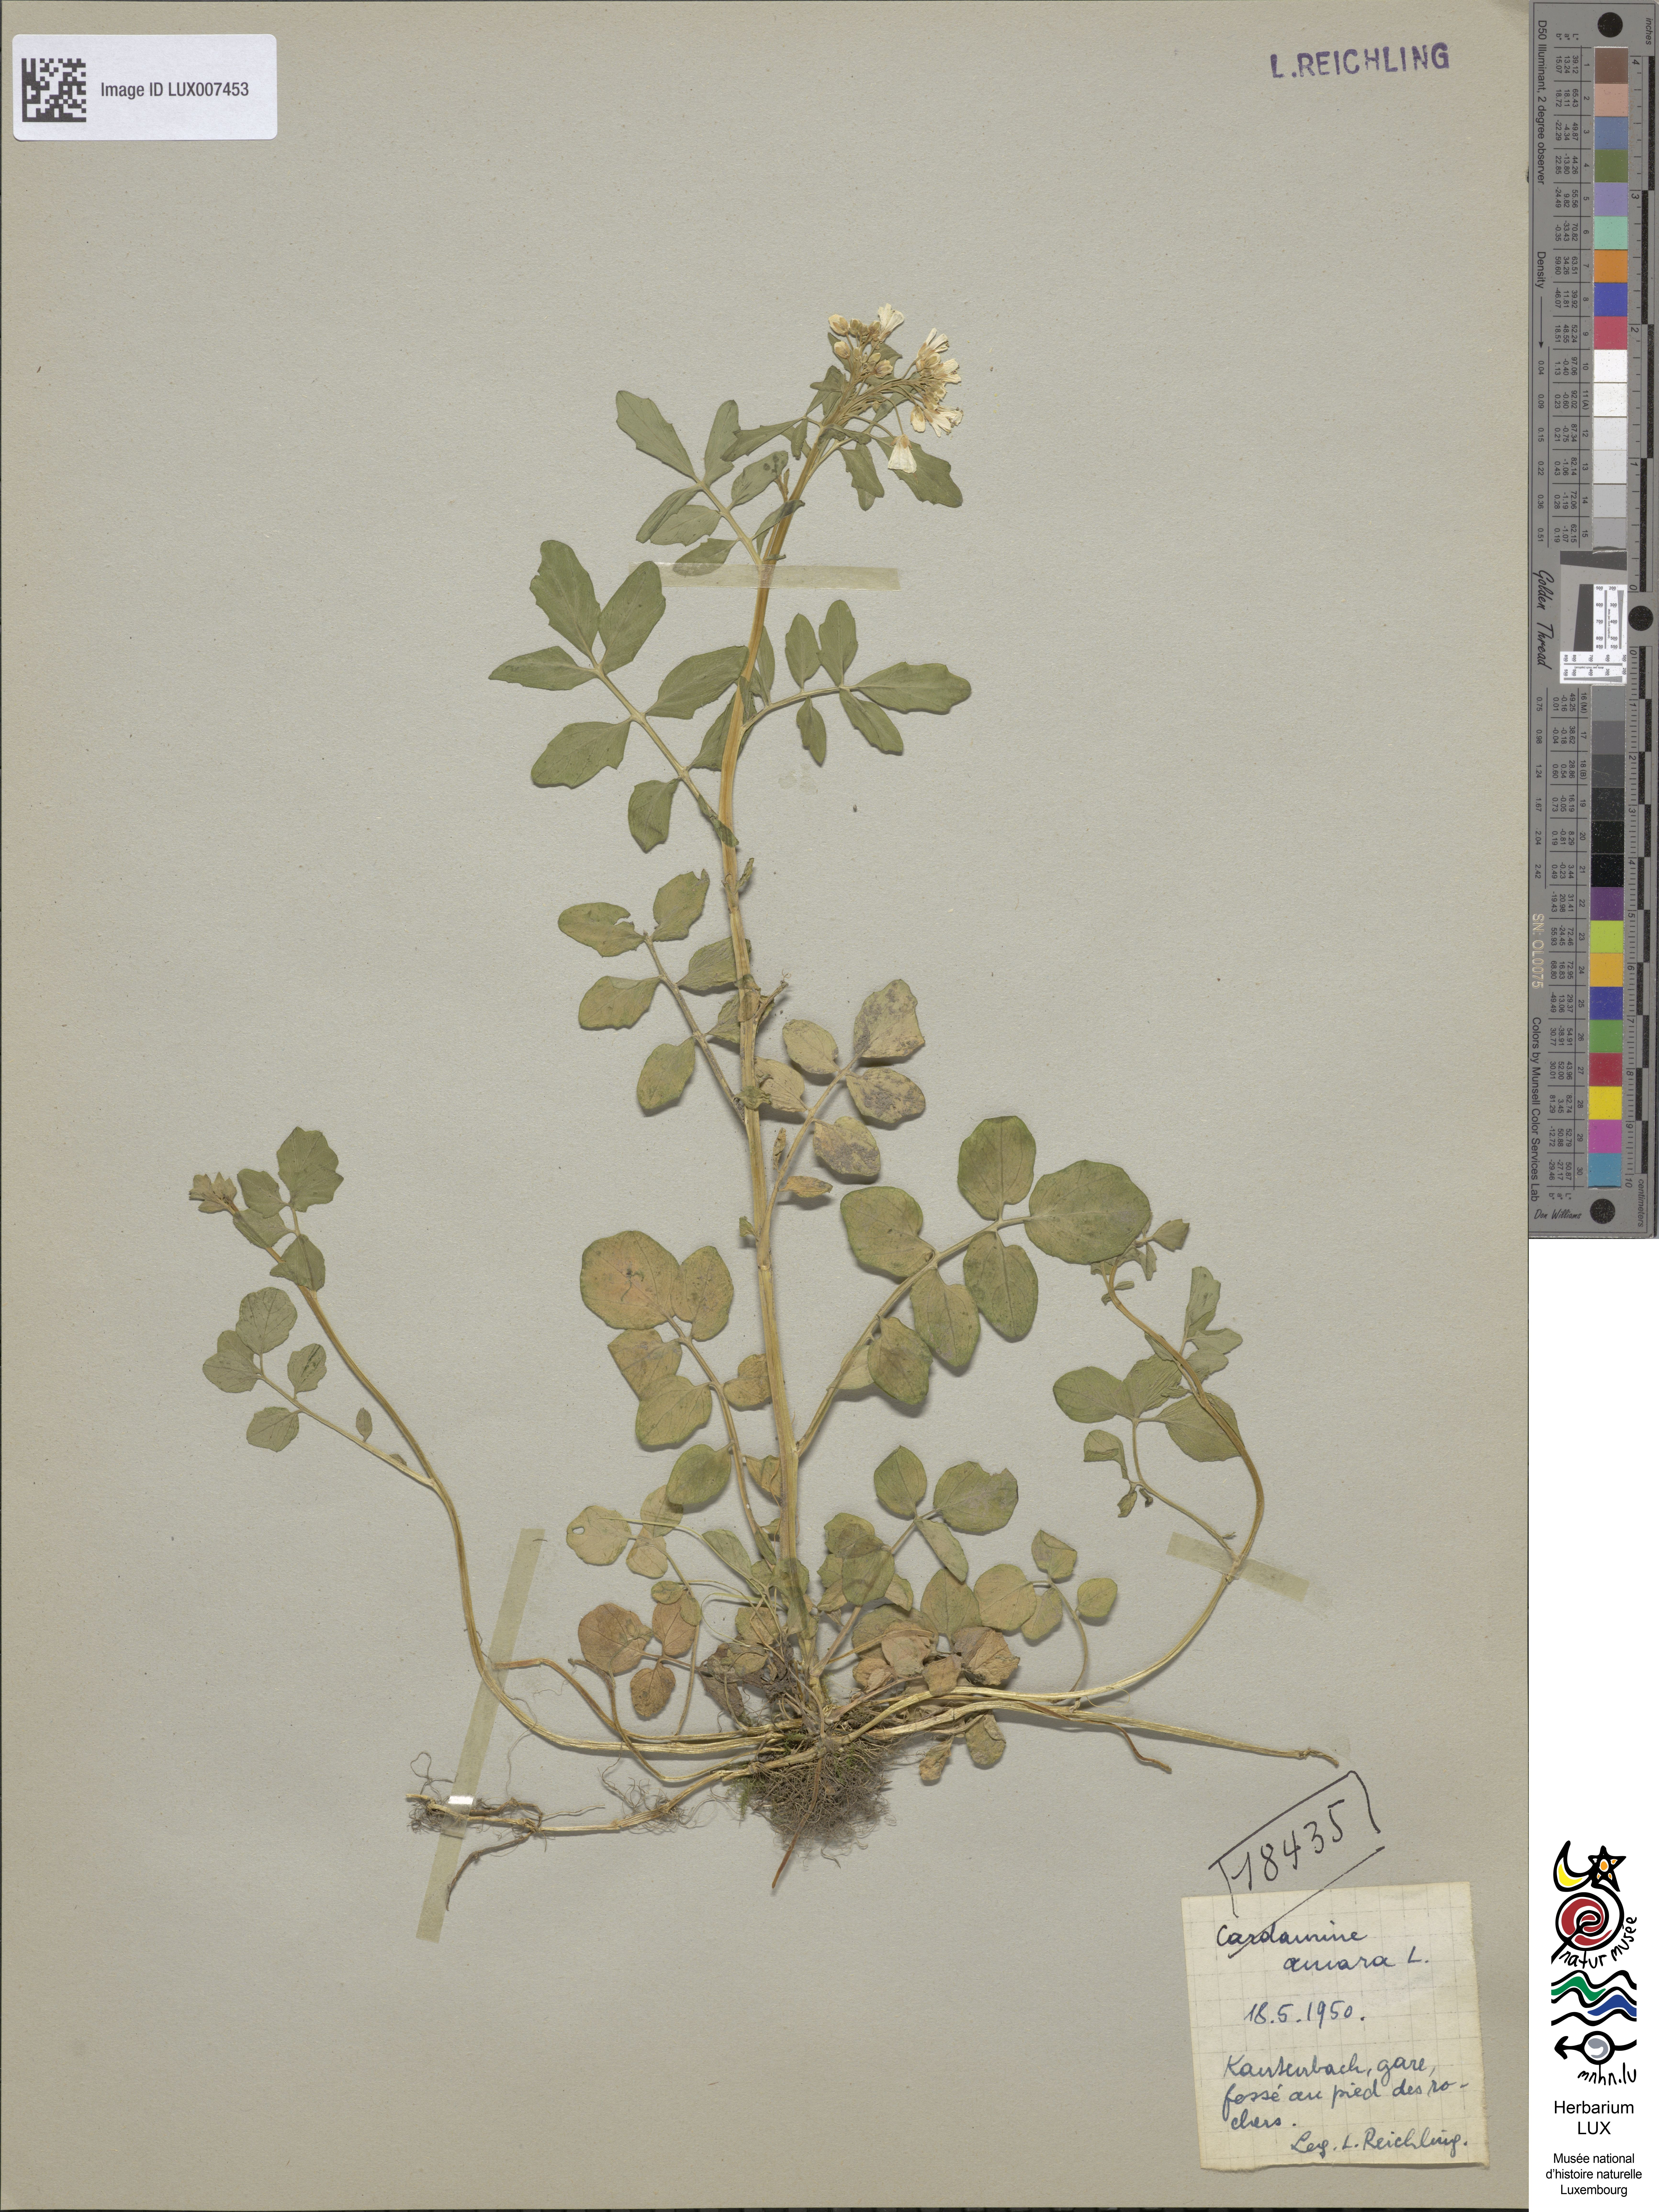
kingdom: Plantae
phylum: Tracheophyta
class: Magnoliopsida
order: Brassicales
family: Brassicaceae
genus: Cardamine
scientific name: Cardamine amara
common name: Large bitter-cress
